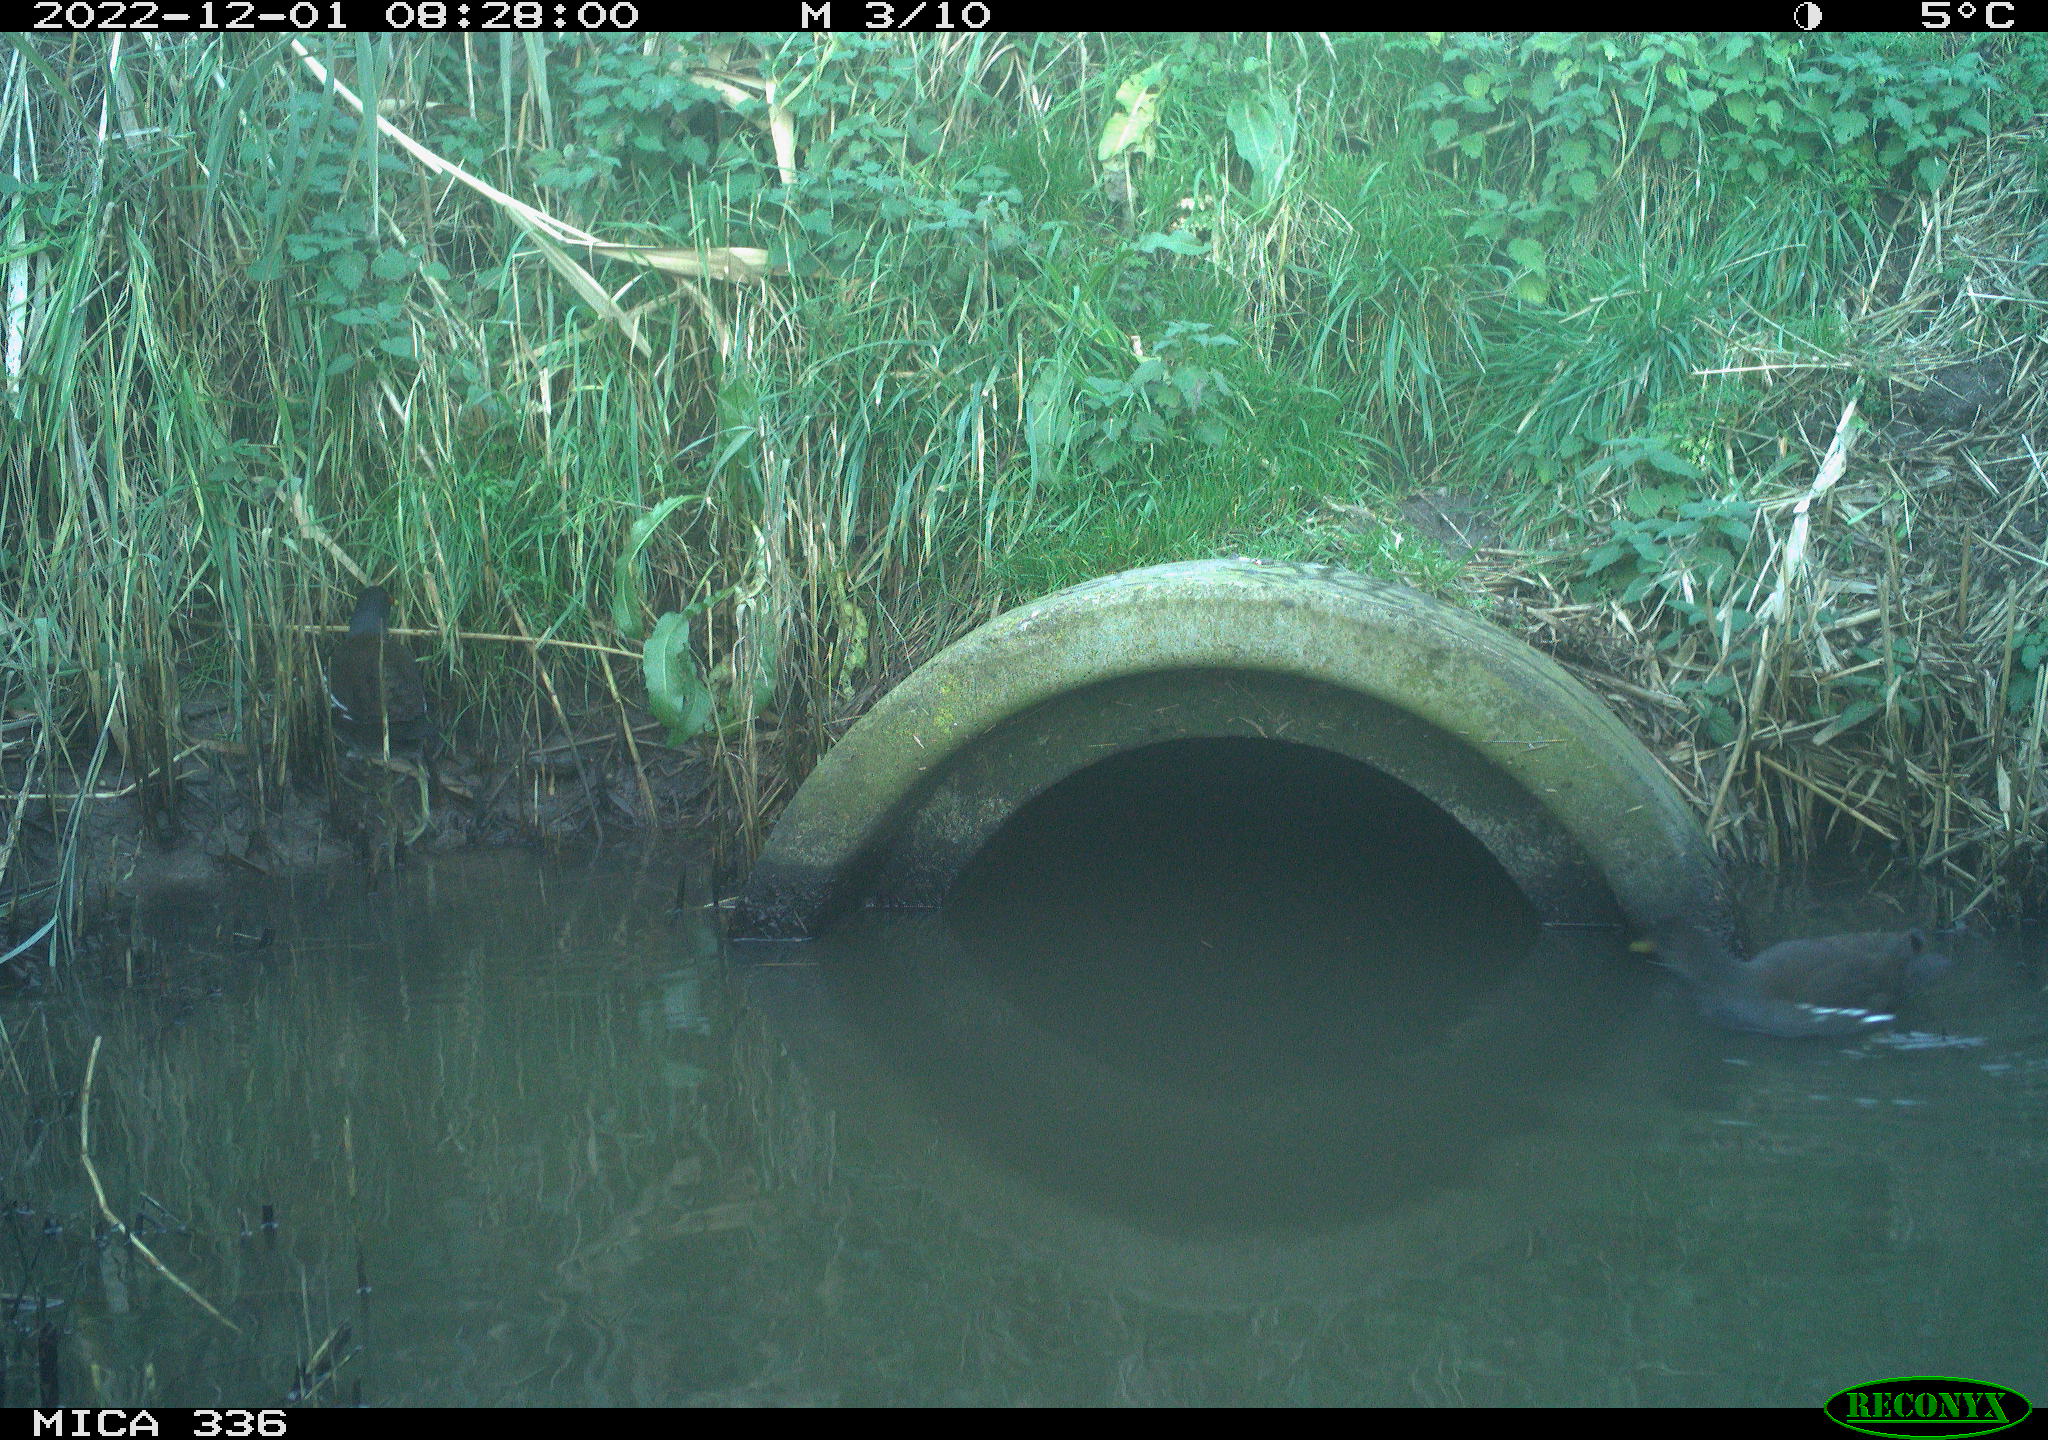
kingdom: Animalia
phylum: Chordata
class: Aves
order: Gruiformes
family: Rallidae
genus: Gallinula
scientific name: Gallinula chloropus
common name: Common moorhen
